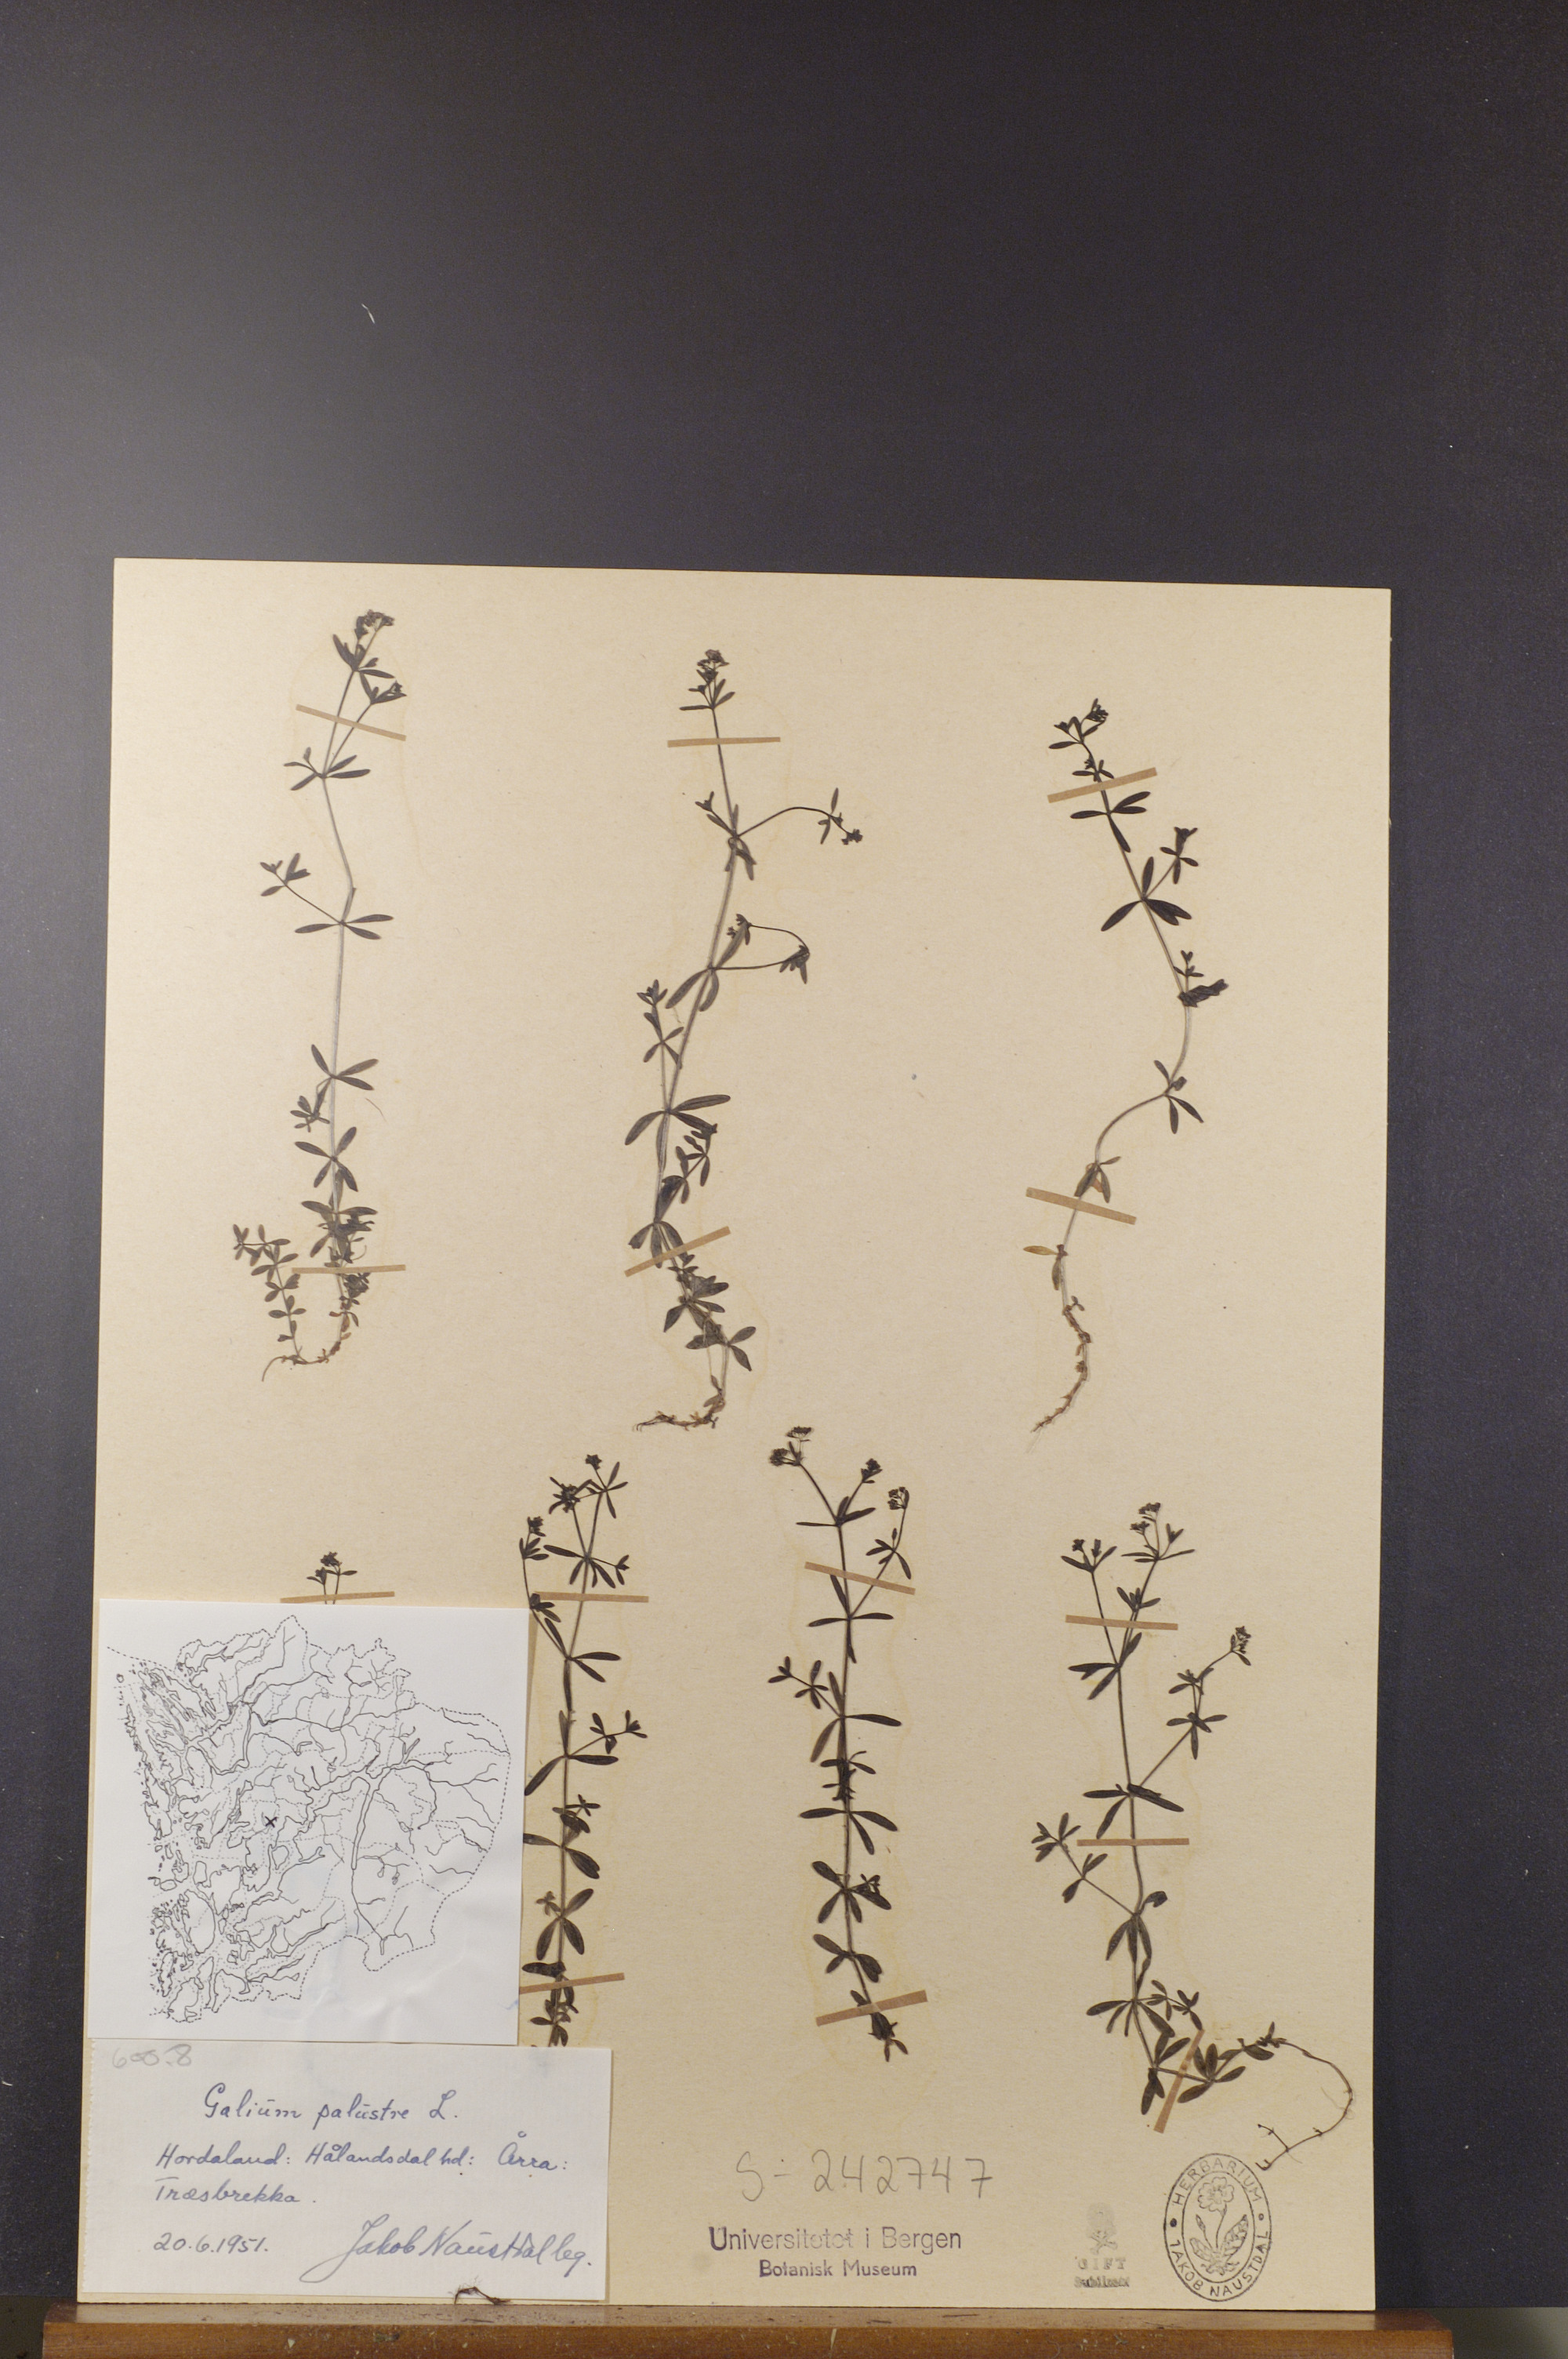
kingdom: Plantae
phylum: Tracheophyta
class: Magnoliopsida
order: Gentianales
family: Rubiaceae
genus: Galium
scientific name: Galium palustre
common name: Common marsh-bedstraw
